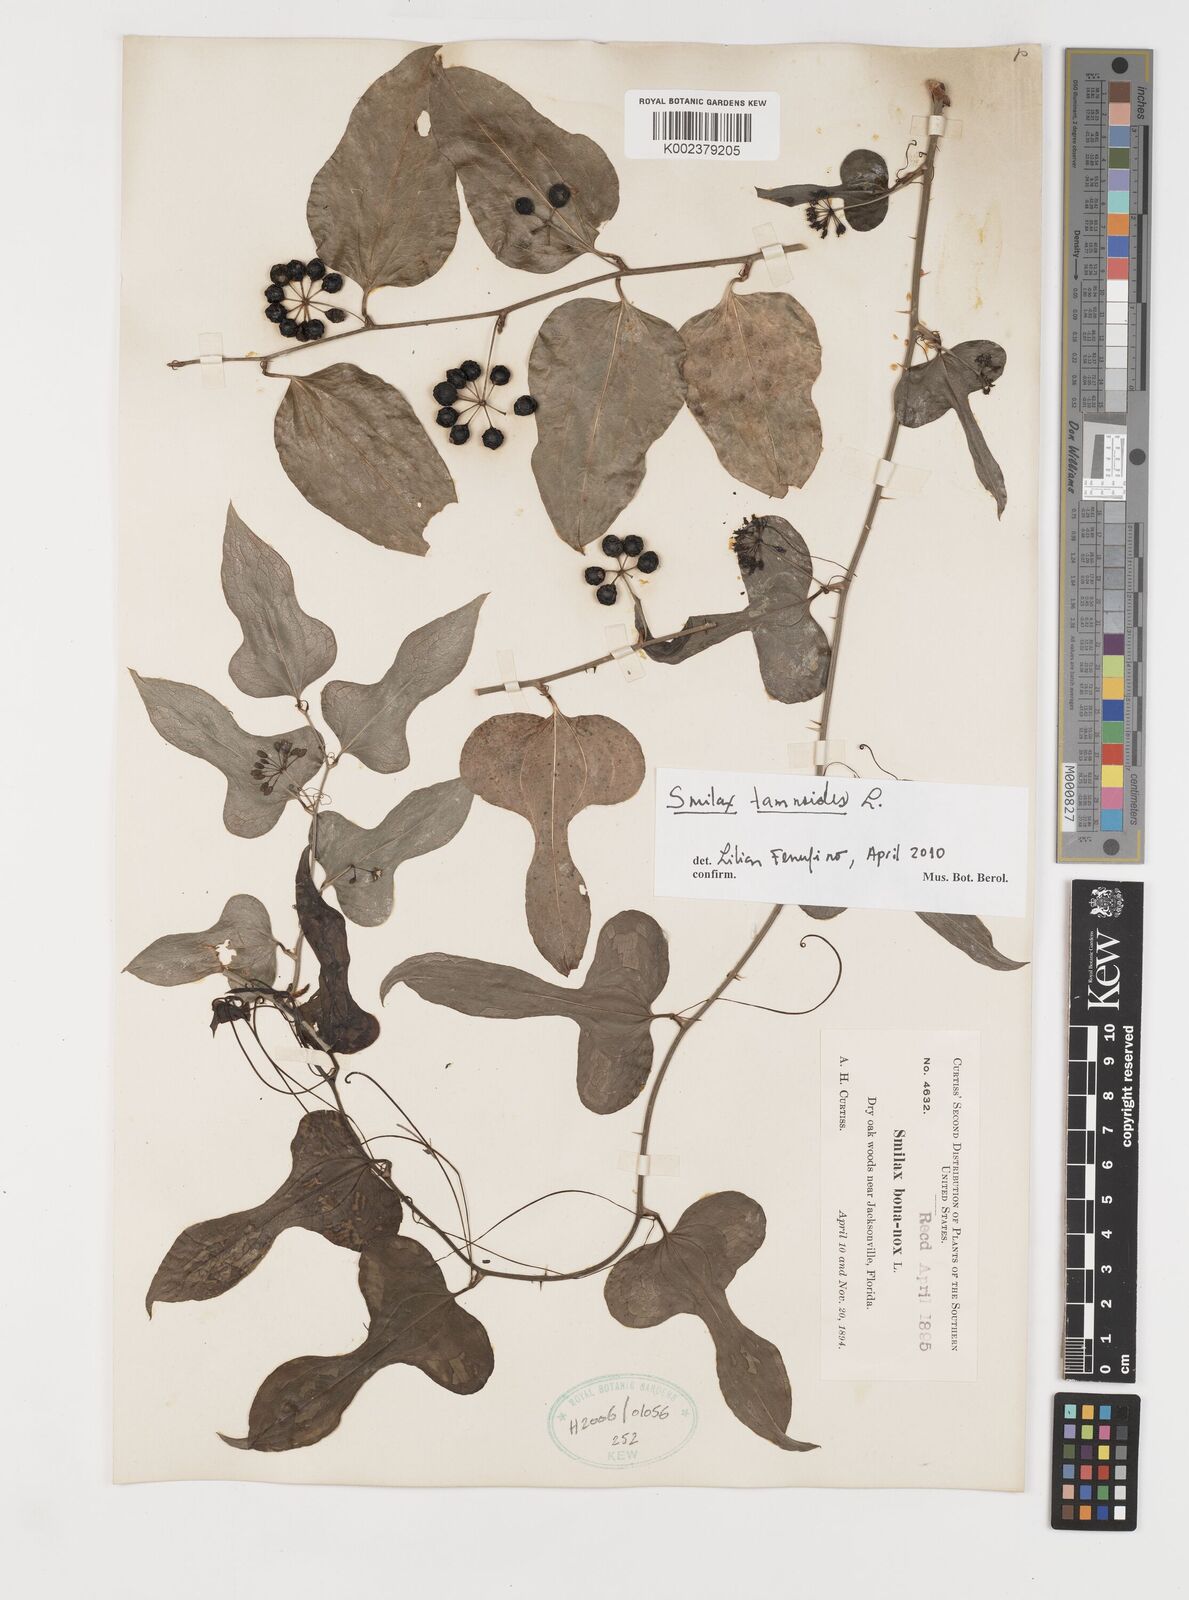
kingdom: Plantae
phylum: Tracheophyta
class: Liliopsida
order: Liliales
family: Smilacaceae
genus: Smilax
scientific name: Smilax pseudochina
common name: False chinaroot
